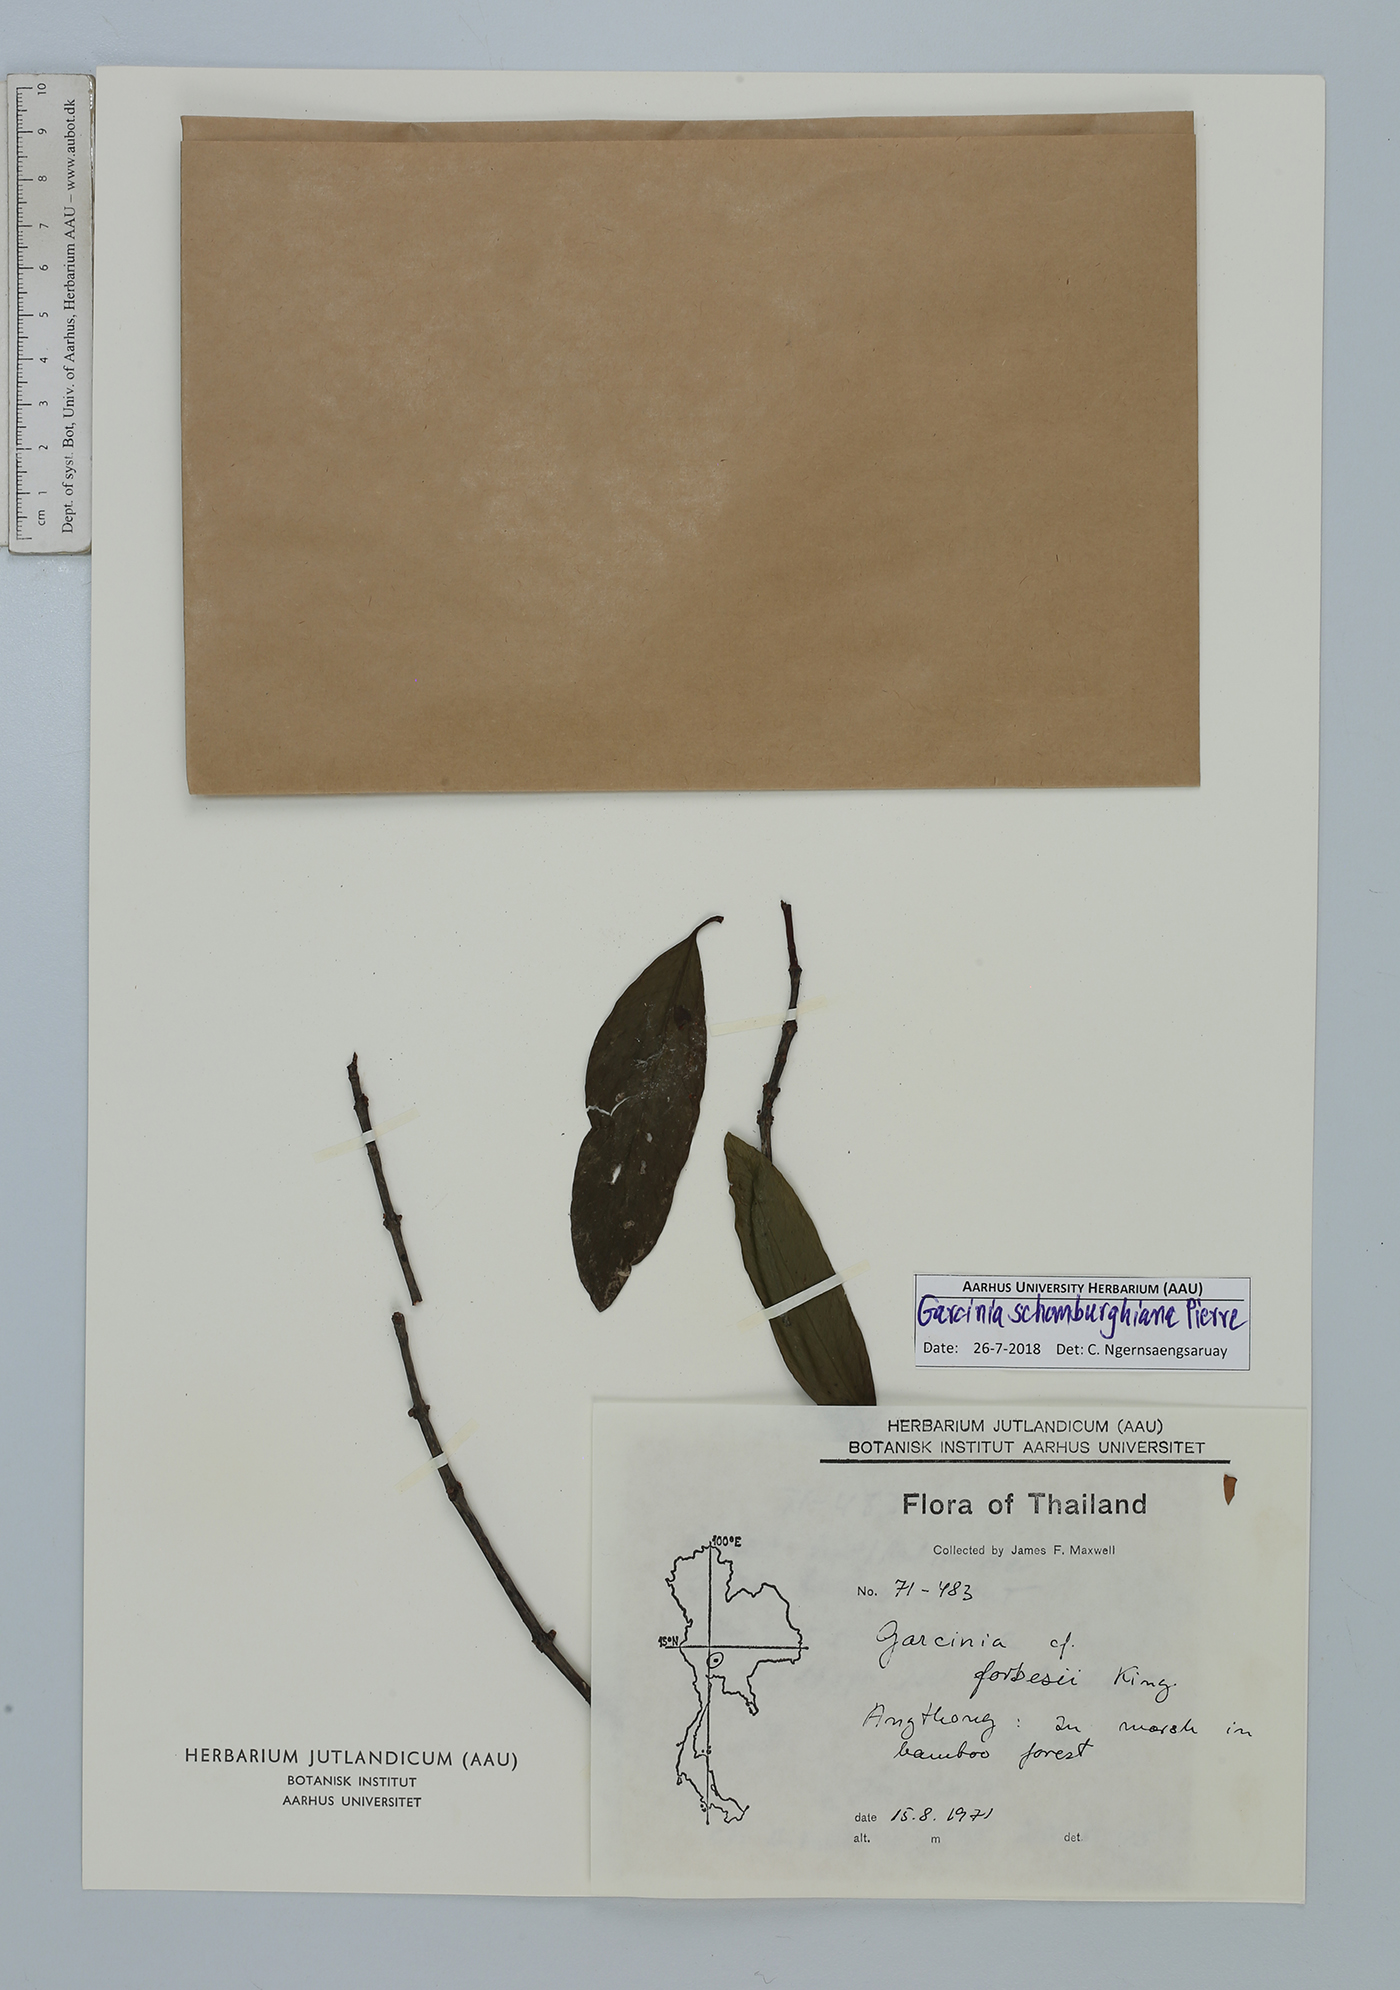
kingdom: Plantae
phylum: Tracheophyta
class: Magnoliopsida
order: Malpighiales
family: Clusiaceae
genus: Garcinia
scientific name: Garcinia schomburgkiana
